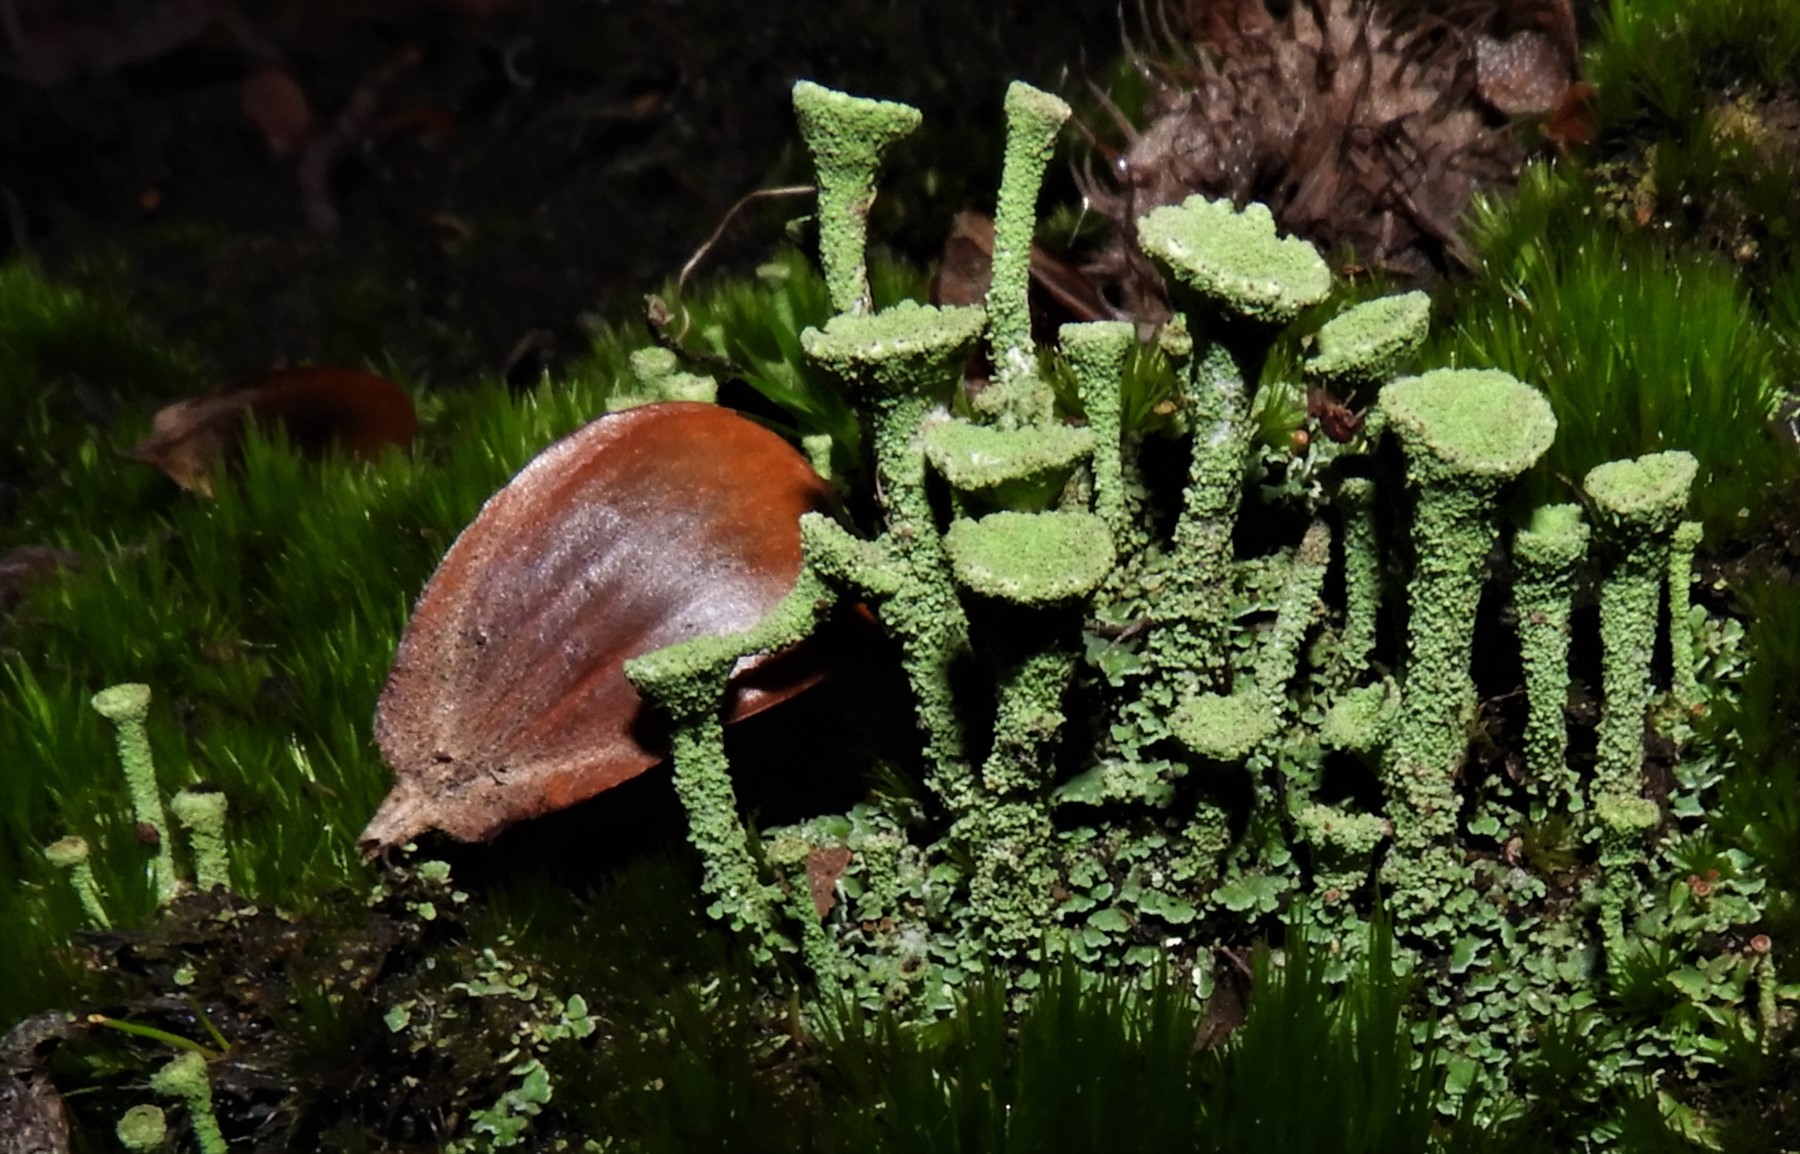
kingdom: Fungi
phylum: Ascomycota
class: Lecanoromycetes
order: Lecanorales
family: Cladoniaceae
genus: Cladonia
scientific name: Cladonia
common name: brungrøn bægerlav
